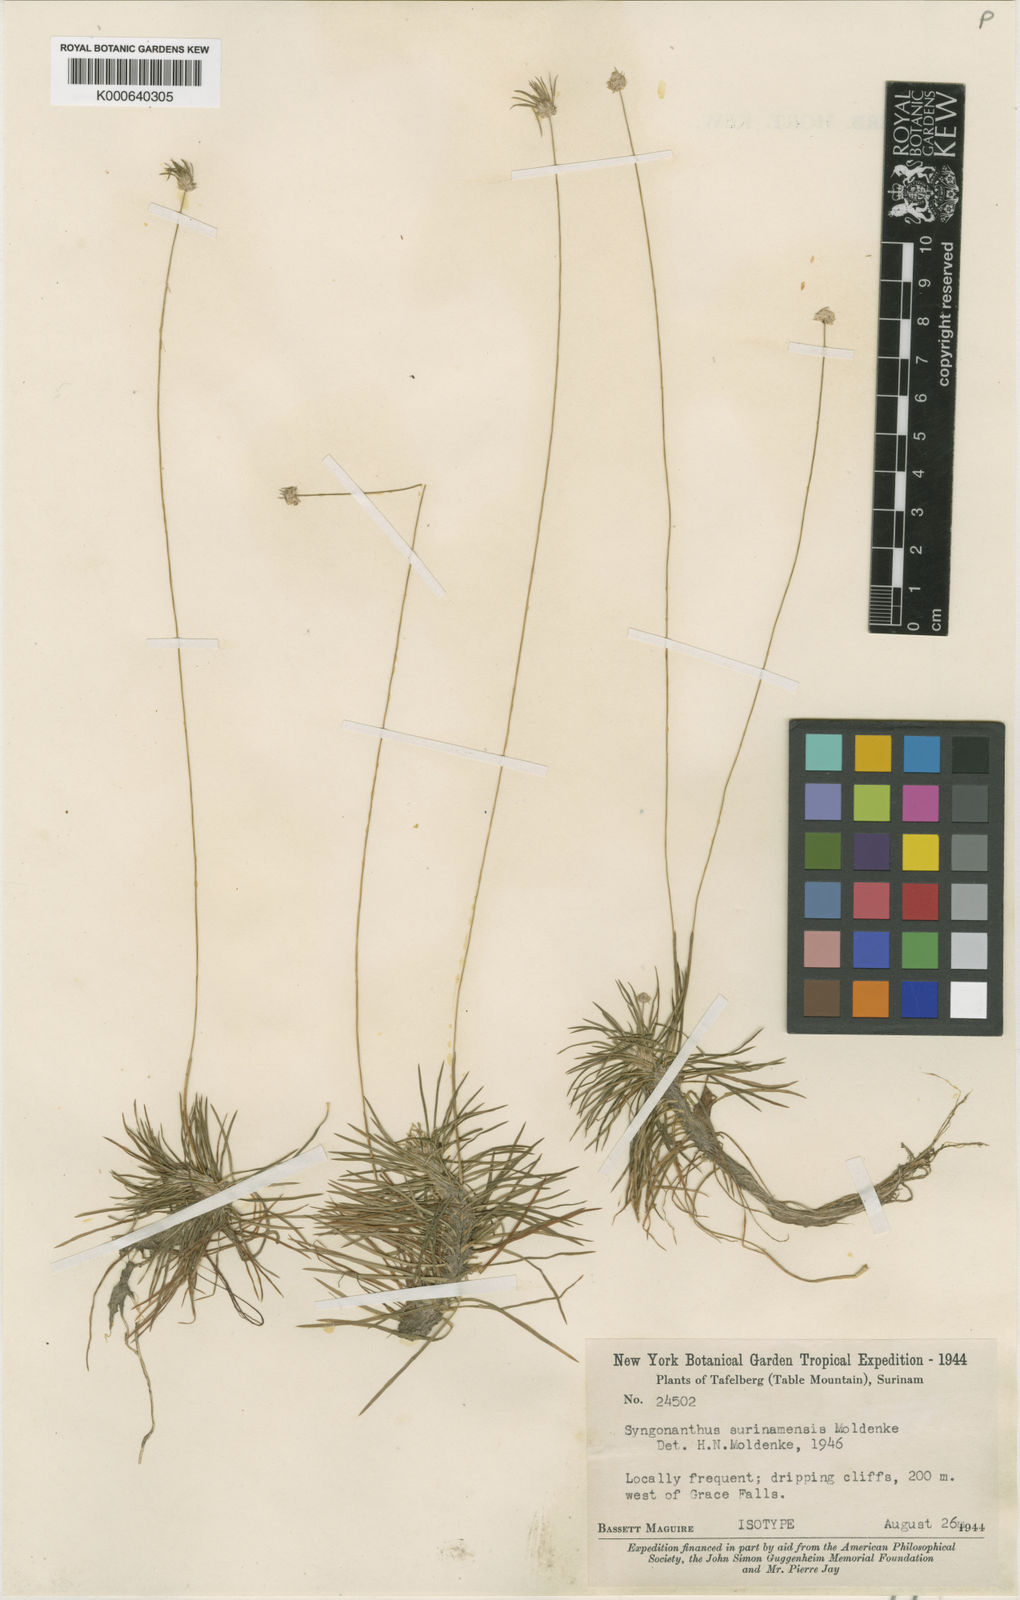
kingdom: Plantae
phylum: Tracheophyta
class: Liliopsida
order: Poales
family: Eriocaulaceae
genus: Syngonanthus
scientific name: Syngonanthus surinamensis
